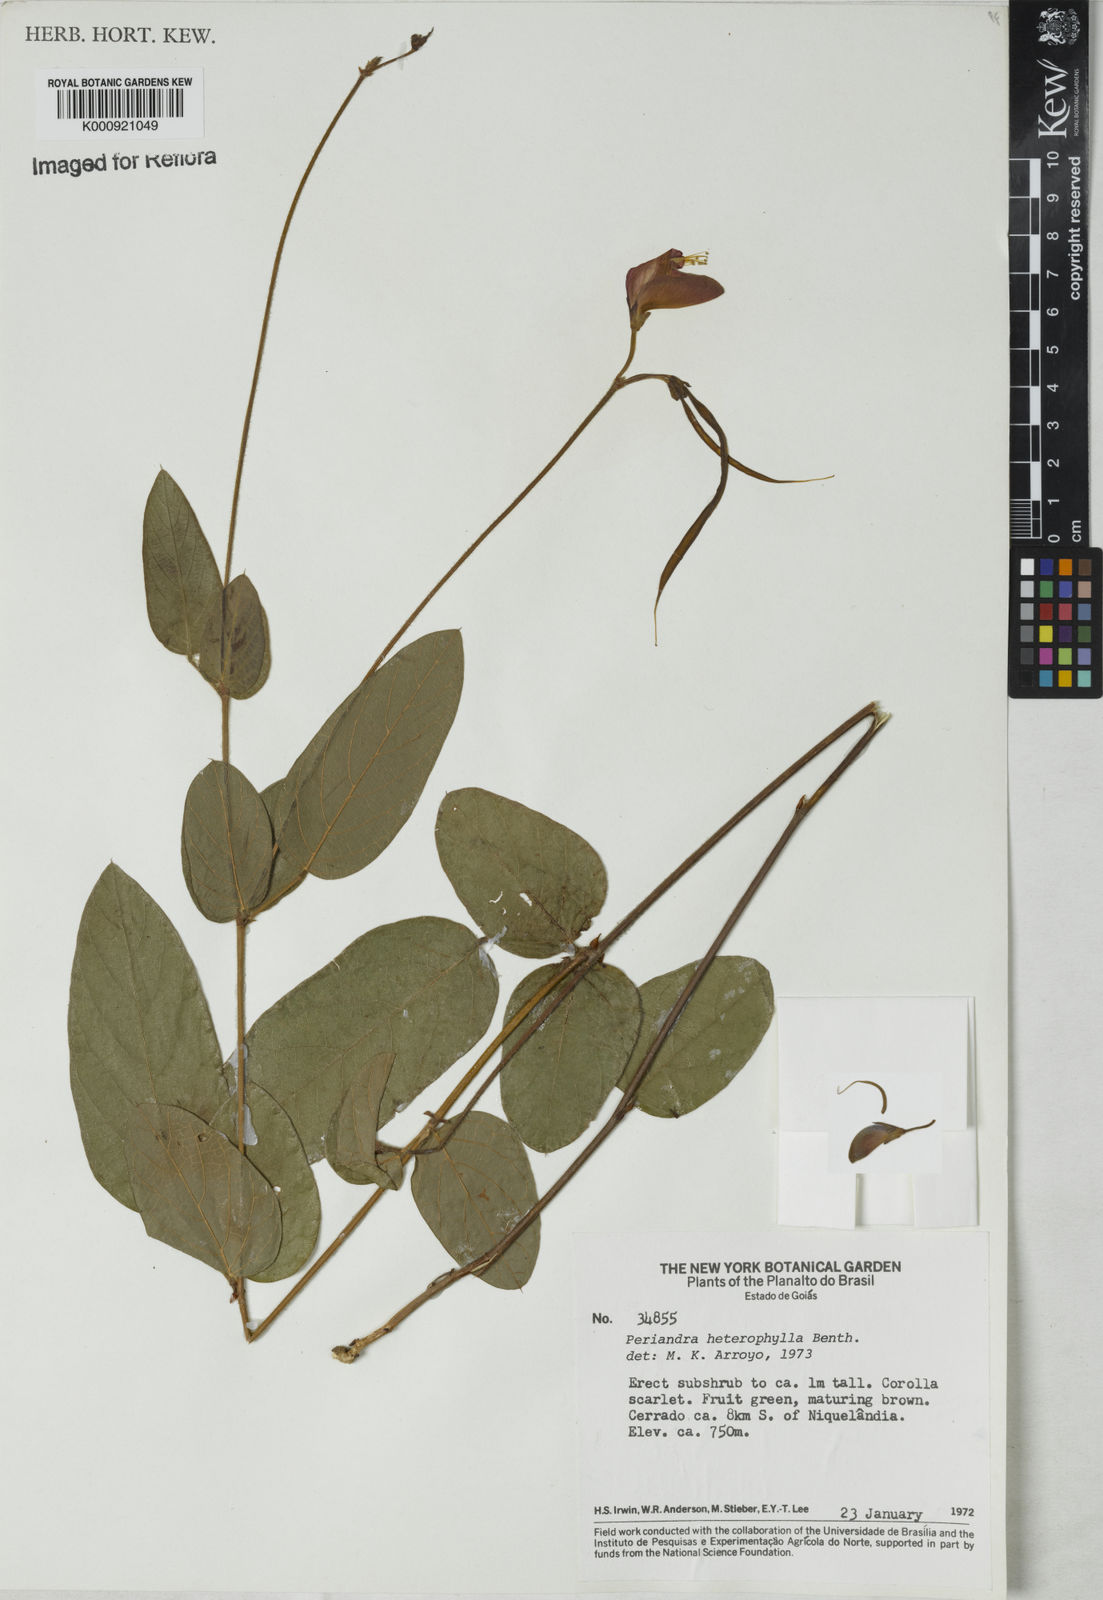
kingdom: Plantae
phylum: Tracheophyta
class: Magnoliopsida
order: Fabales
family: Fabaceae
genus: Periandra
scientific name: Periandra heterophylla
